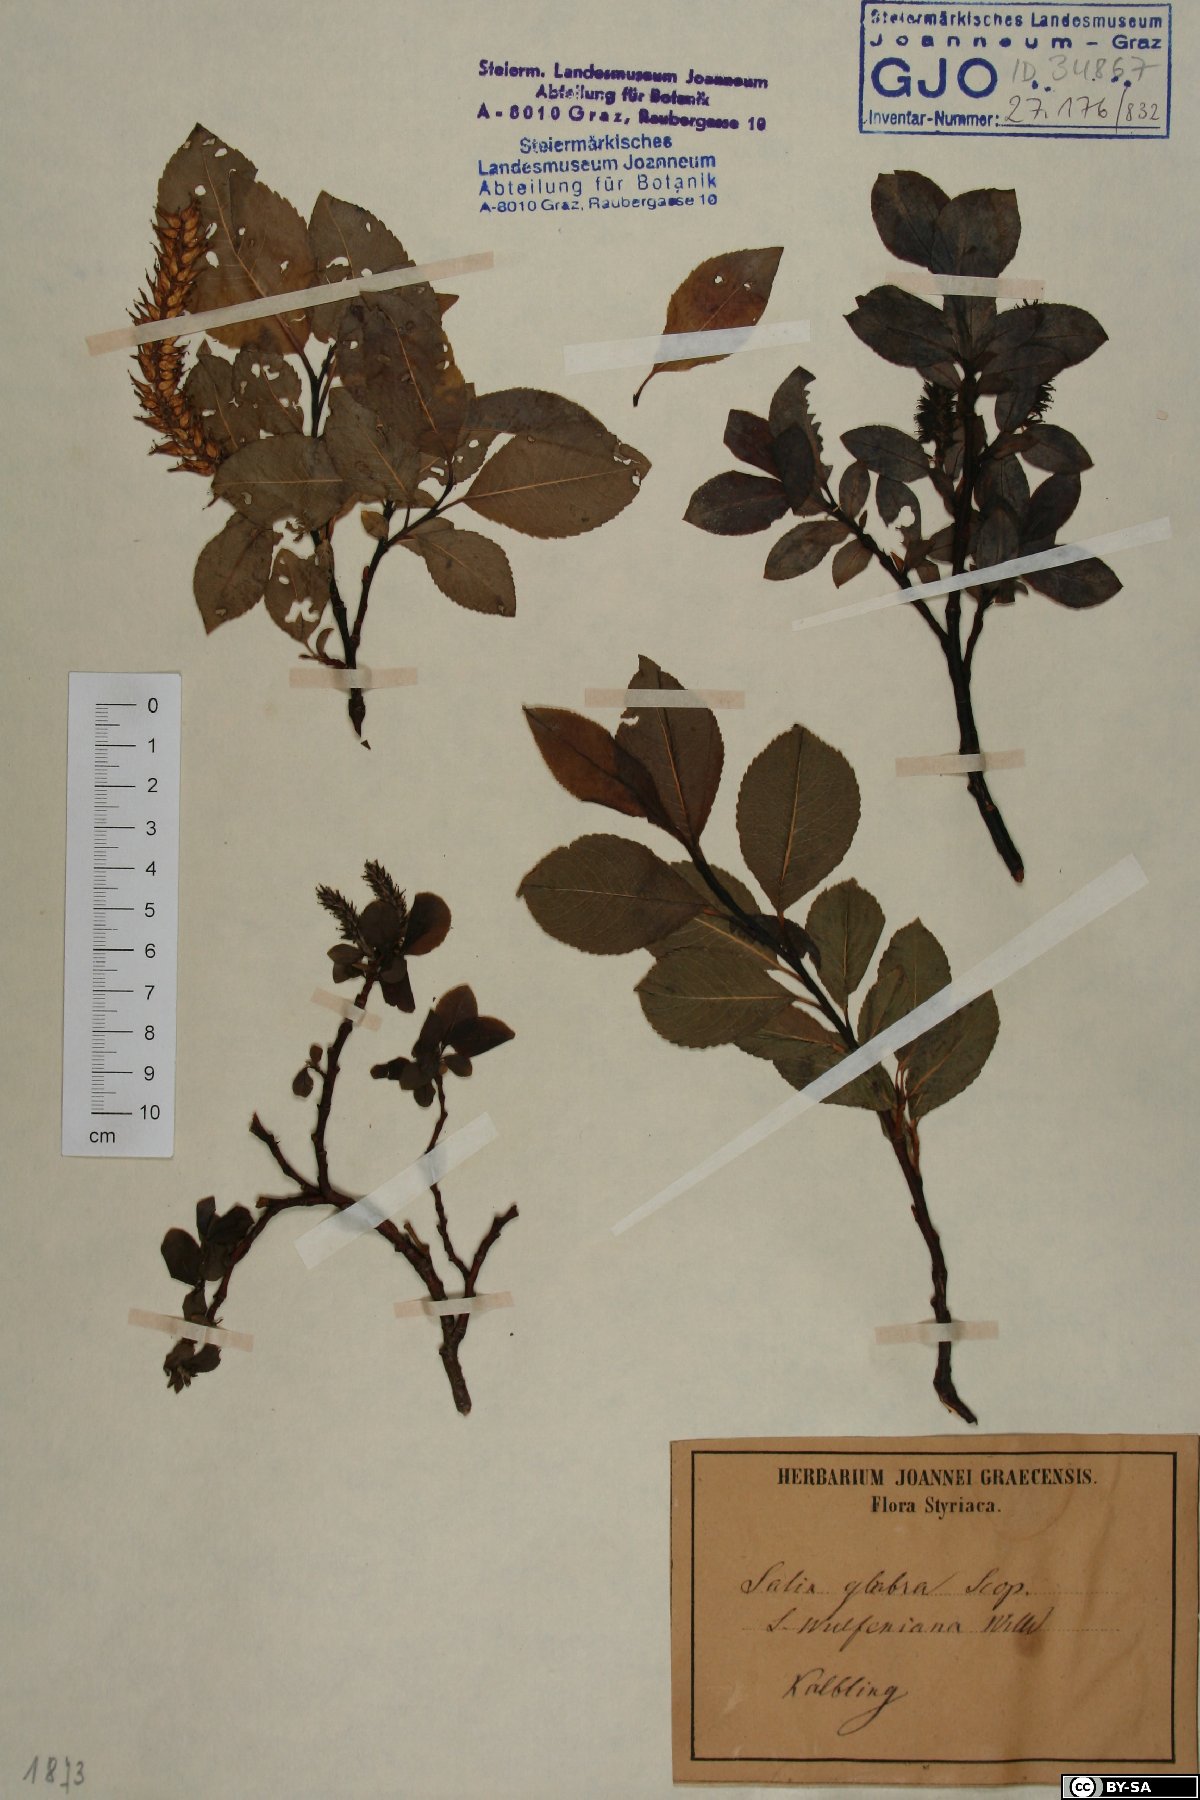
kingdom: Plantae
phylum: Tracheophyta
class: Magnoliopsida
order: Malpighiales
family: Salicaceae
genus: Salix
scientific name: Salix glabra
